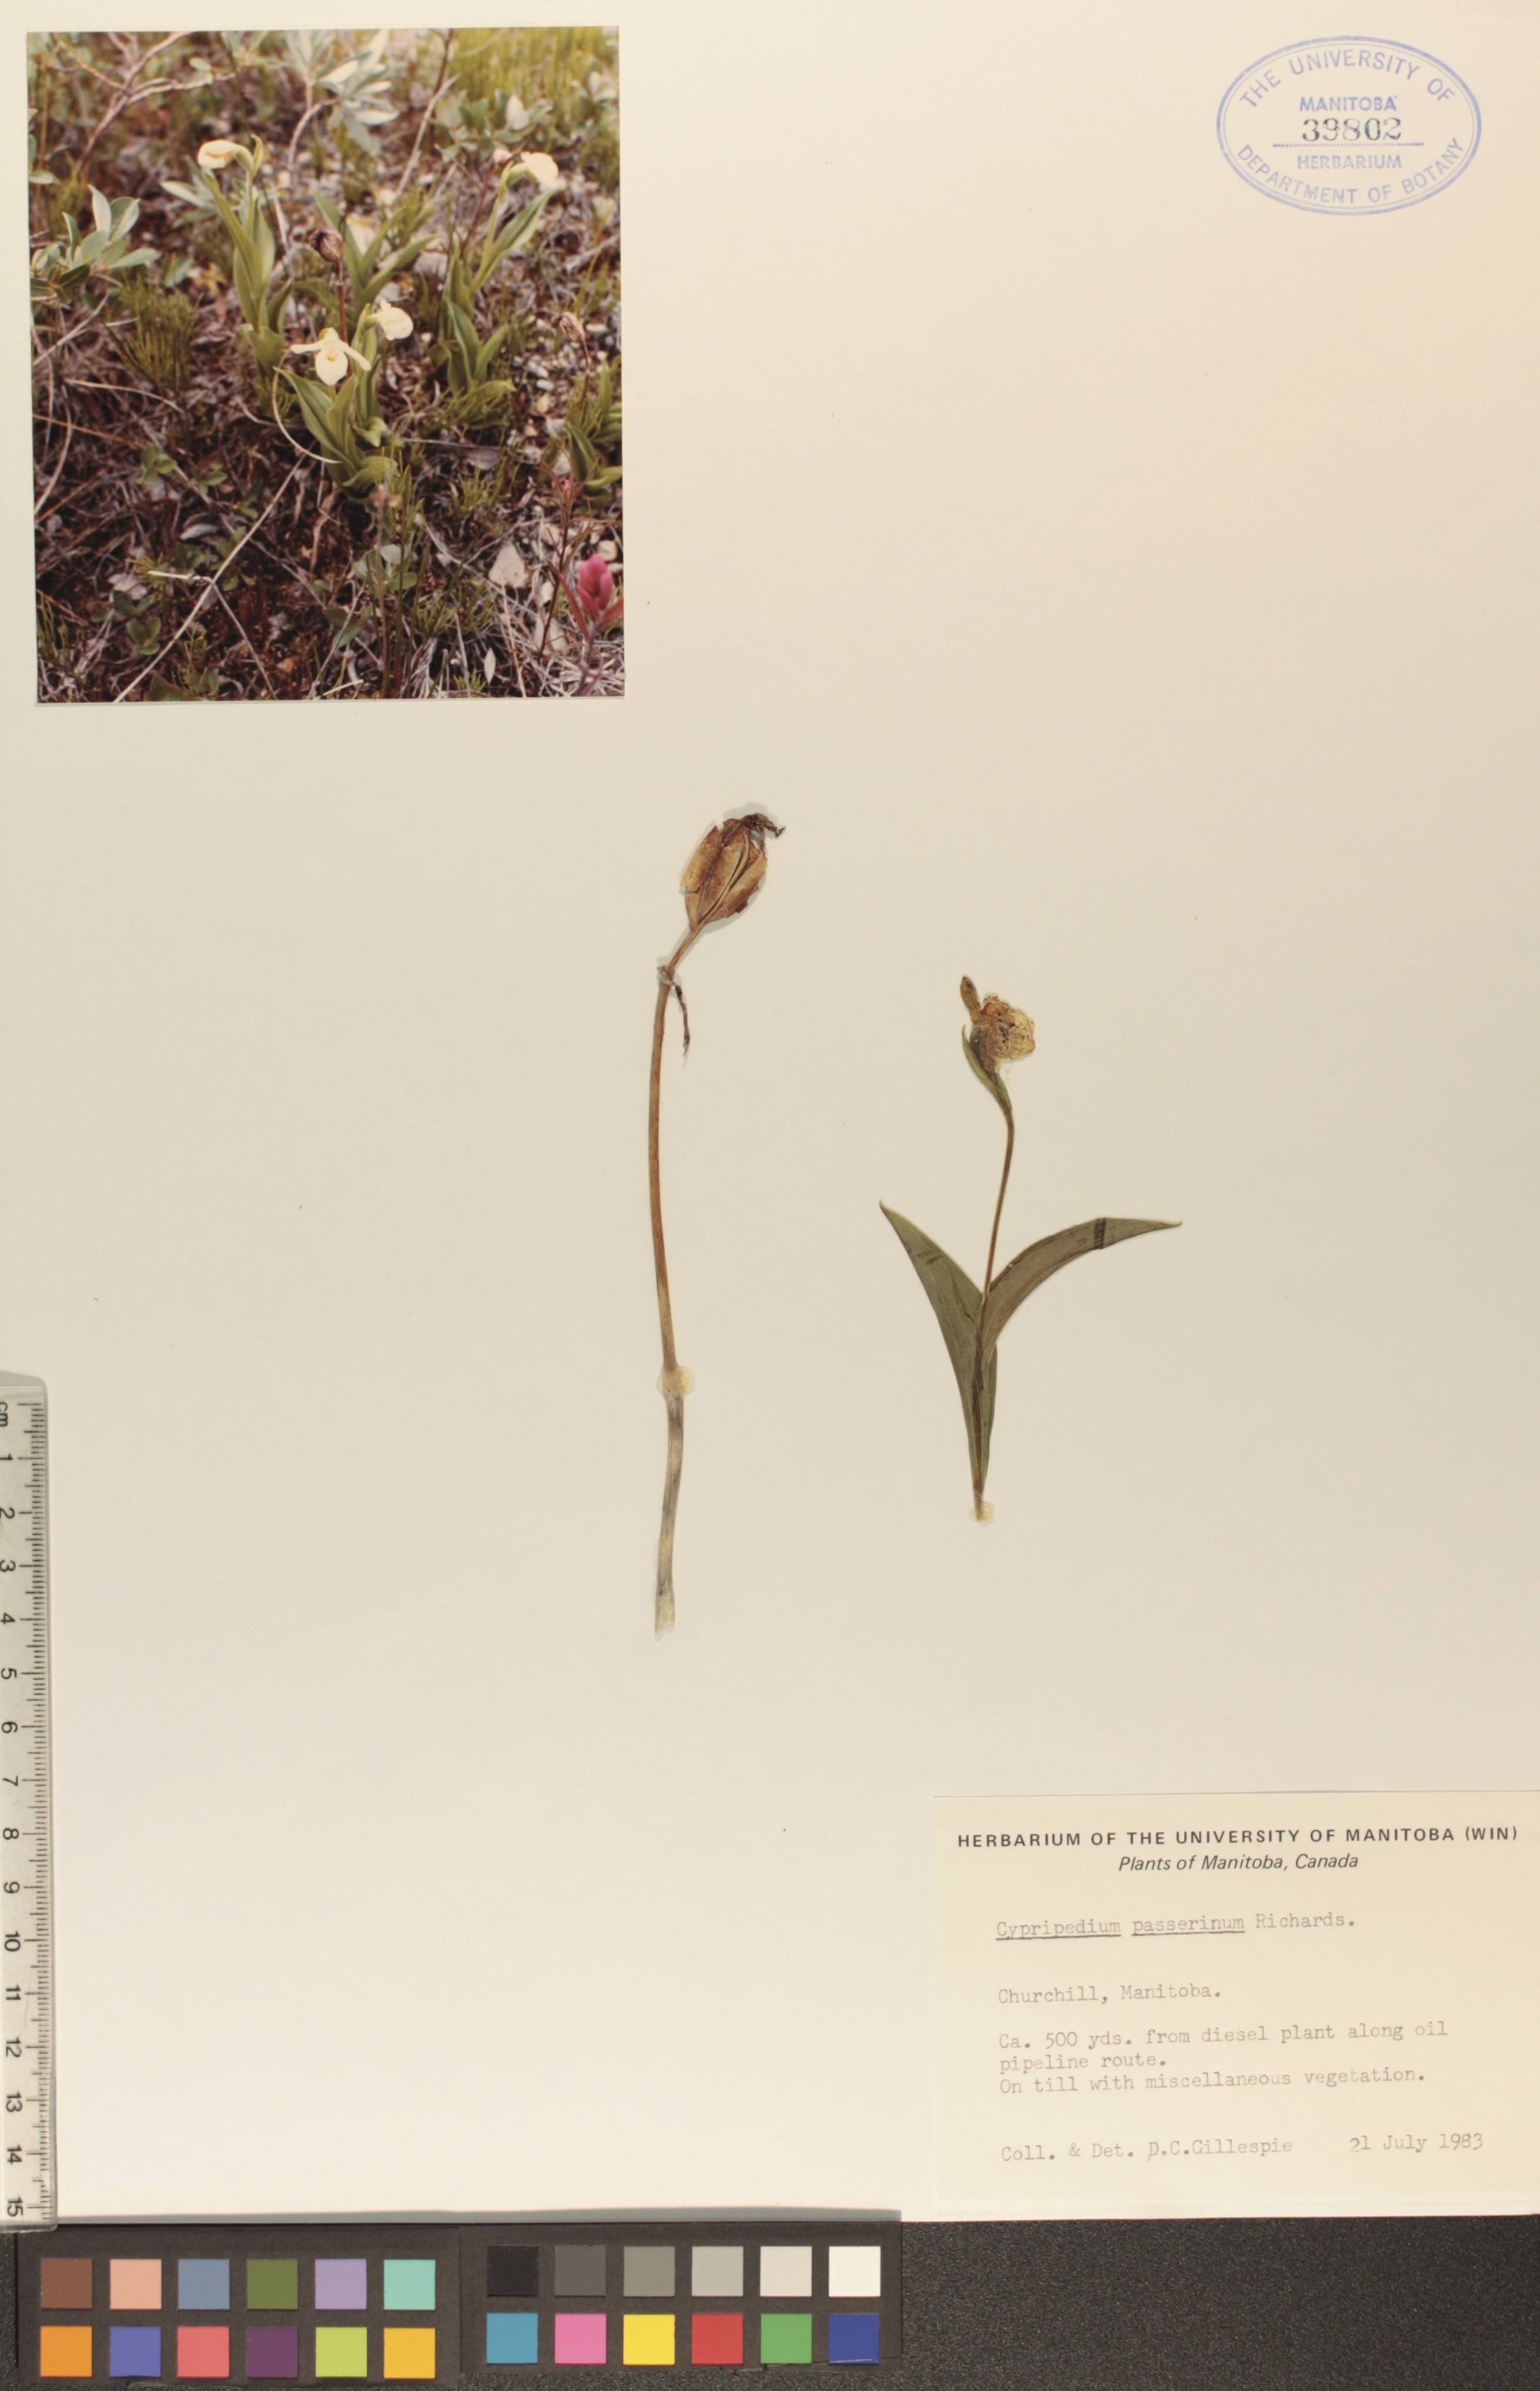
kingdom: Plantae
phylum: Tracheophyta
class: Liliopsida
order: Asparagales
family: Orchidaceae
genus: Cypripedium
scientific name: Cypripedium passerinum
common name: Sparrow's-egg lady's-slipper
